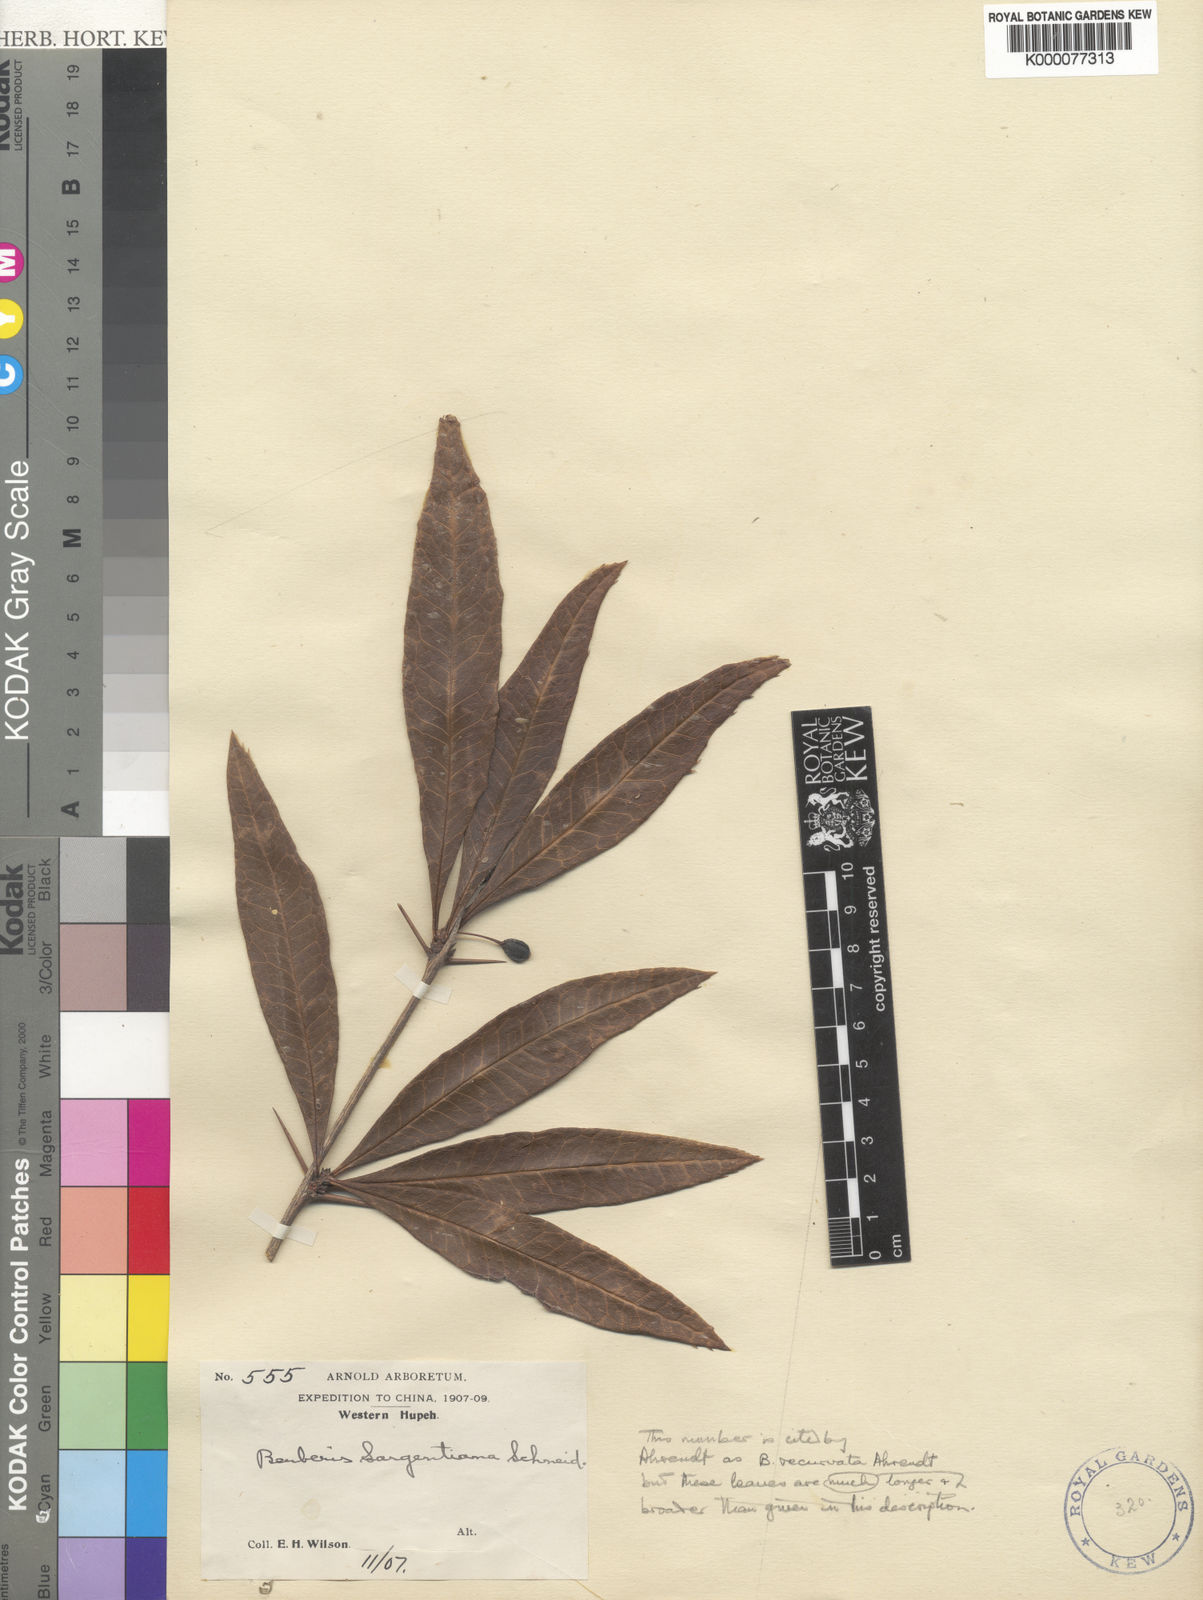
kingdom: Plantae
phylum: Tracheophyta
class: Magnoliopsida
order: Ranunculales
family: Berberidaceae
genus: Berberis
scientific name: Berberis sargentiana
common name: Sargent's barberry
